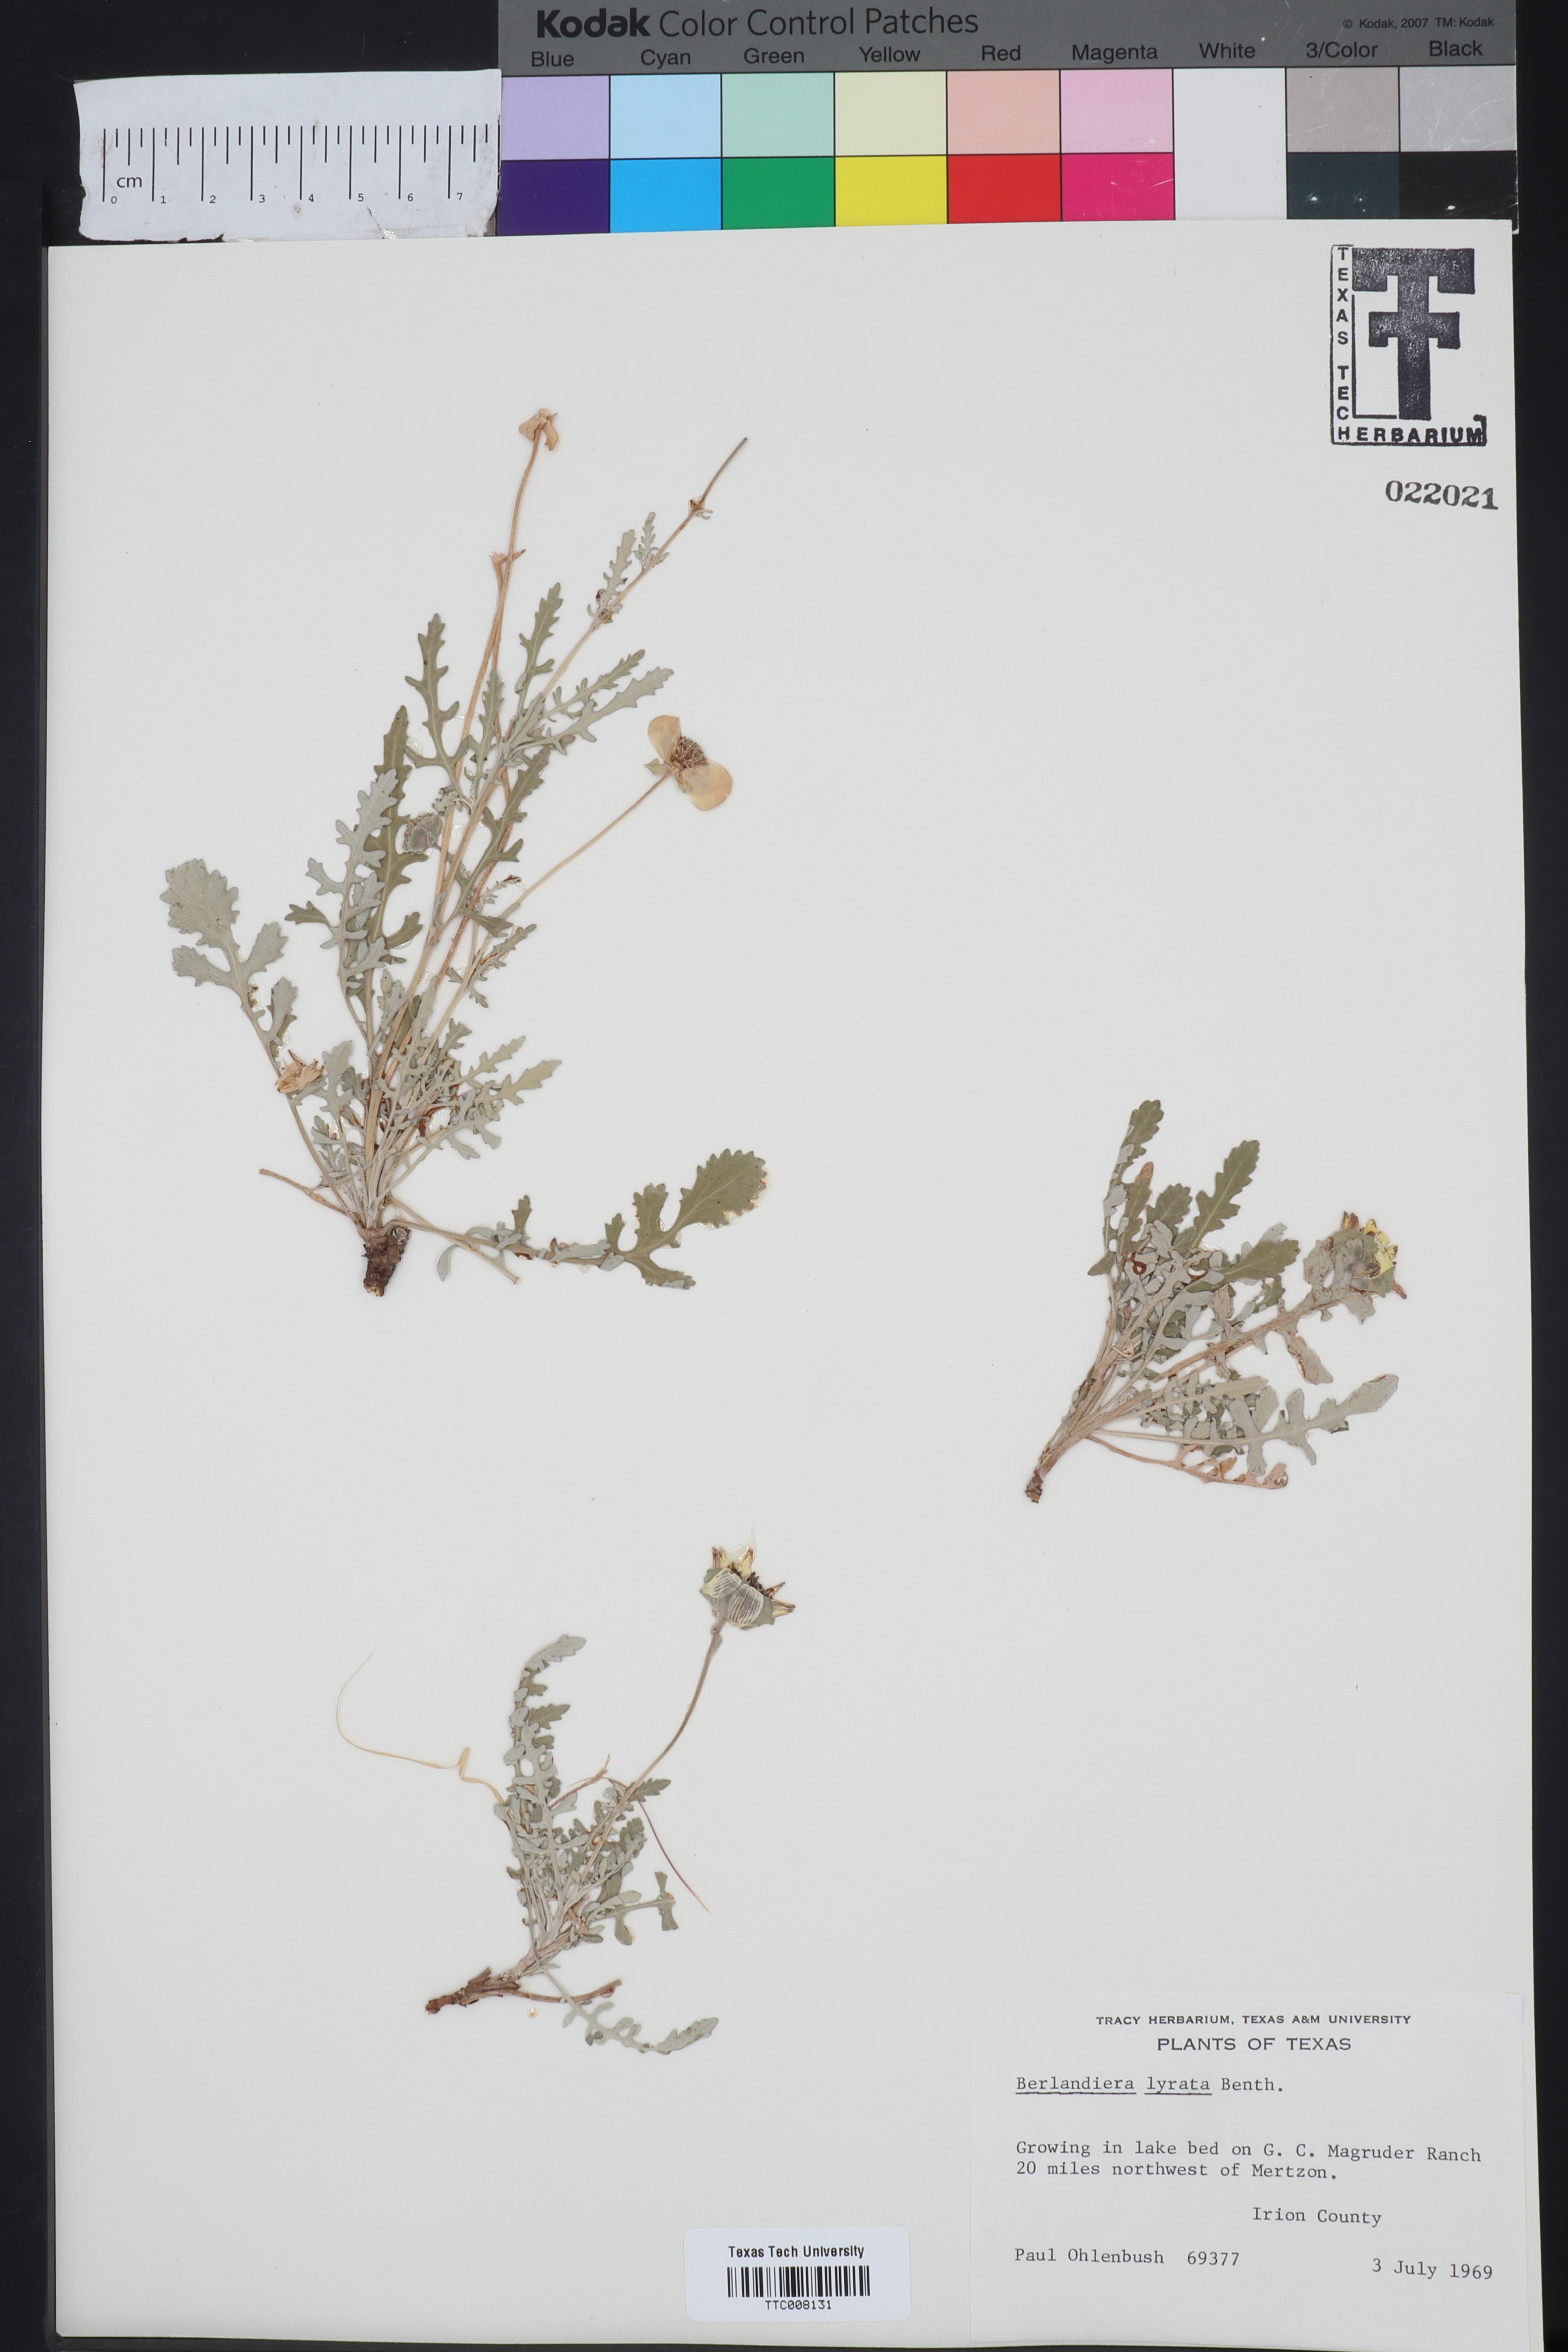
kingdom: Plantae
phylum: Tracheophyta
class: Magnoliopsida
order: Asterales
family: Asteraceae
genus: Berlandiera
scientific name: Berlandiera lyrata
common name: Chocolate-flower
